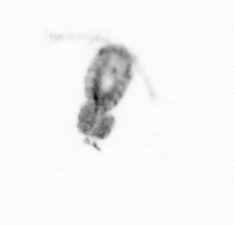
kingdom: Animalia
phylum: Arthropoda
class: Copepoda
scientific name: Copepoda
